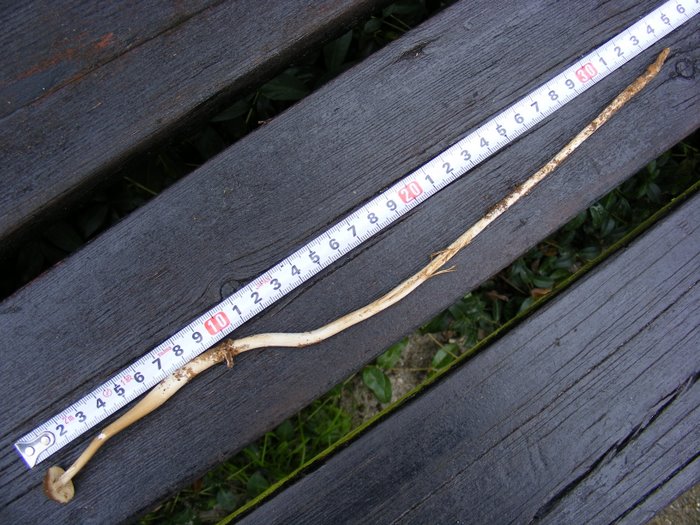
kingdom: Fungi
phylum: Basidiomycota
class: Agaricomycetes
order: Agaricales
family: Physalacriaceae
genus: Hymenopellis
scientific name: Hymenopellis radicata
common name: almindelig pælerodshat
